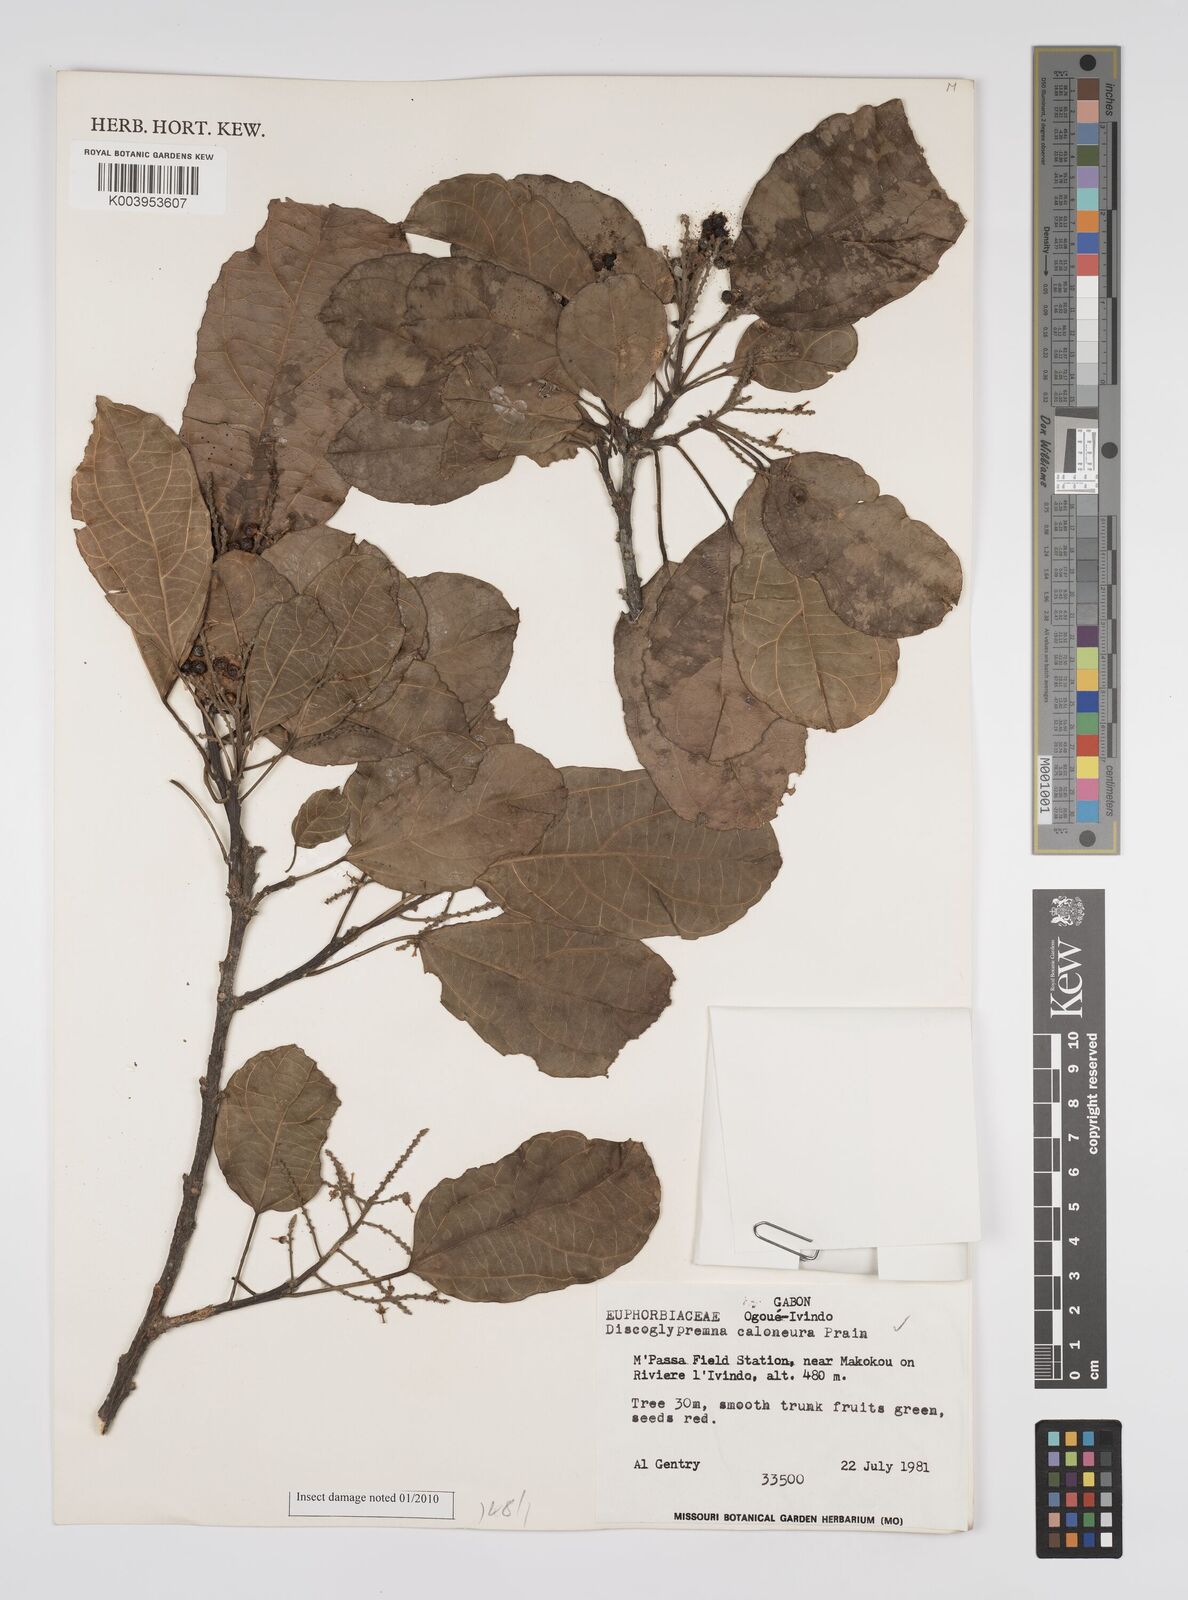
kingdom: Plantae
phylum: Tracheophyta
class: Magnoliopsida
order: Malpighiales
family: Euphorbiaceae
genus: Discoglypremna
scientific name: Discoglypremna caloneura
